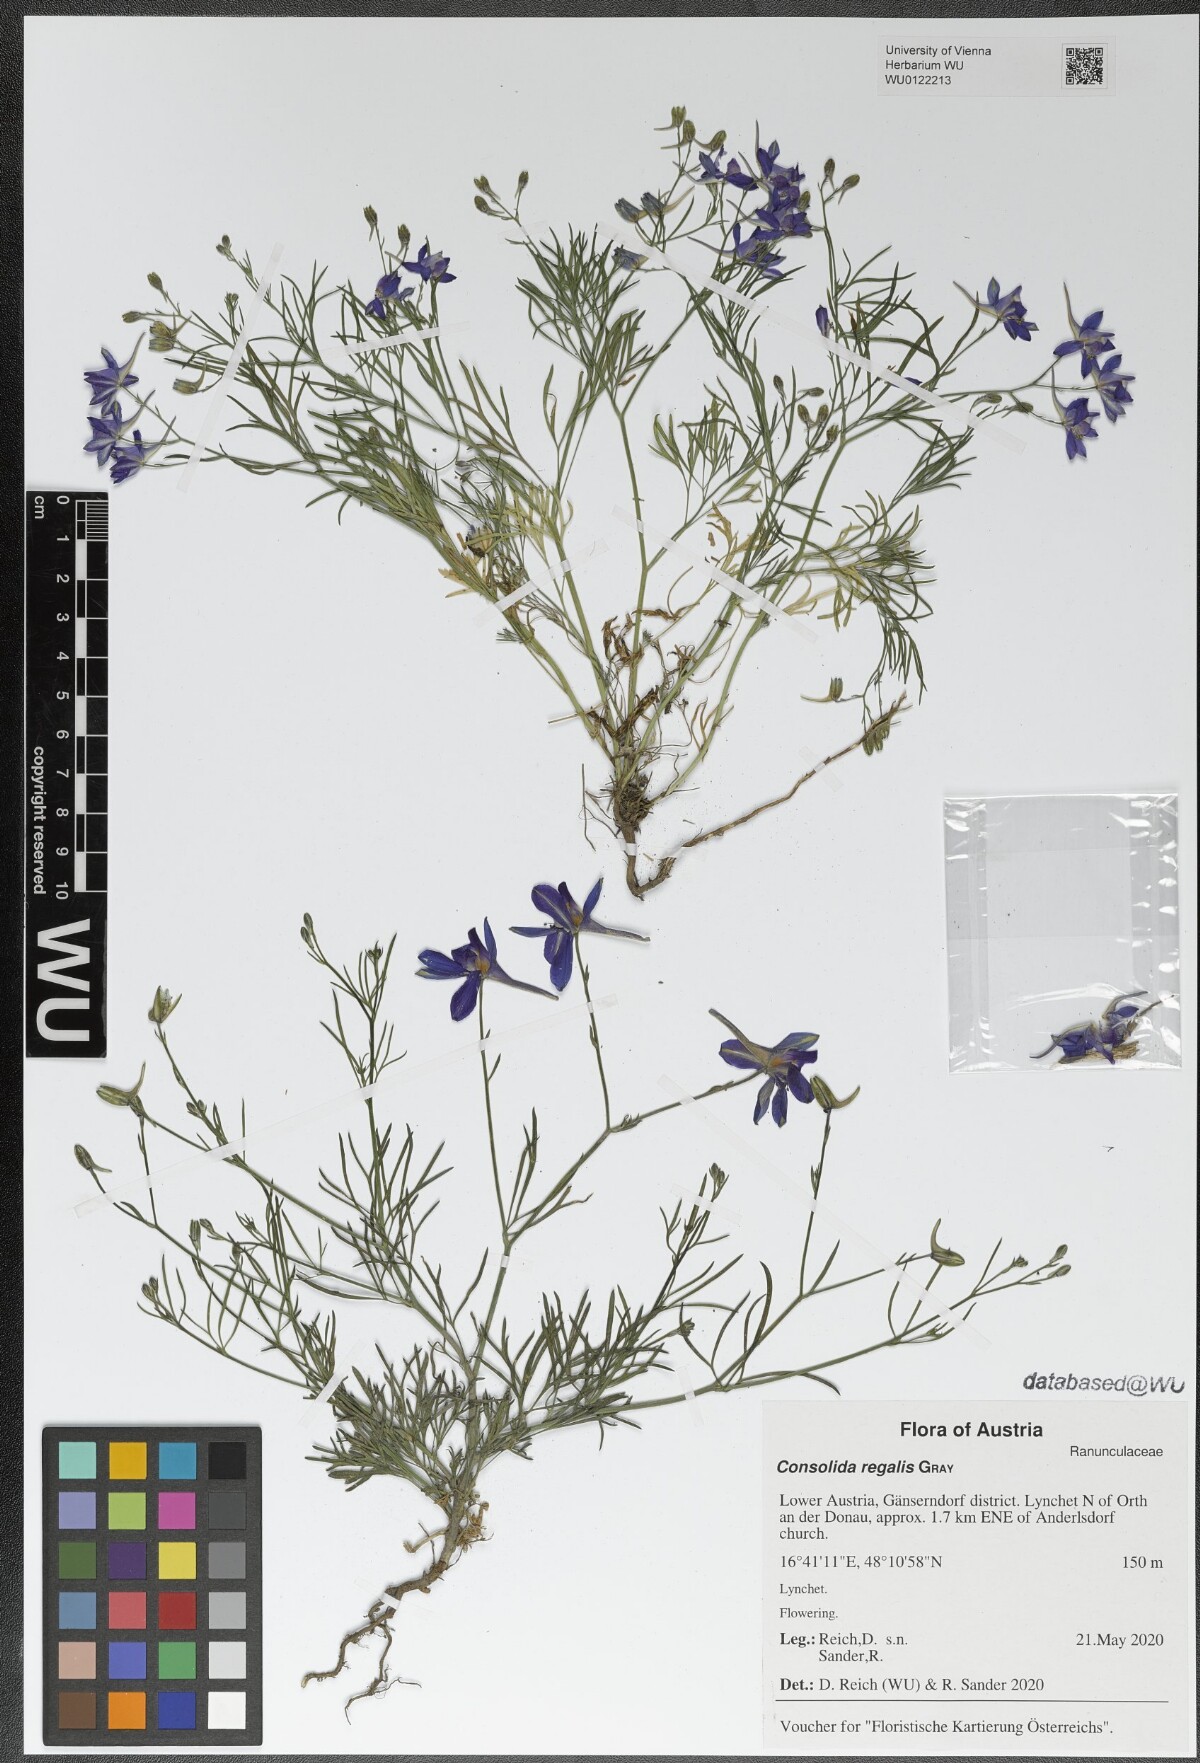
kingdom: Plantae
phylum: Tracheophyta
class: Magnoliopsida
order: Ranunculales
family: Ranunculaceae
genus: Delphinium
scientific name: Delphinium consolida
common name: Branching larkspur
